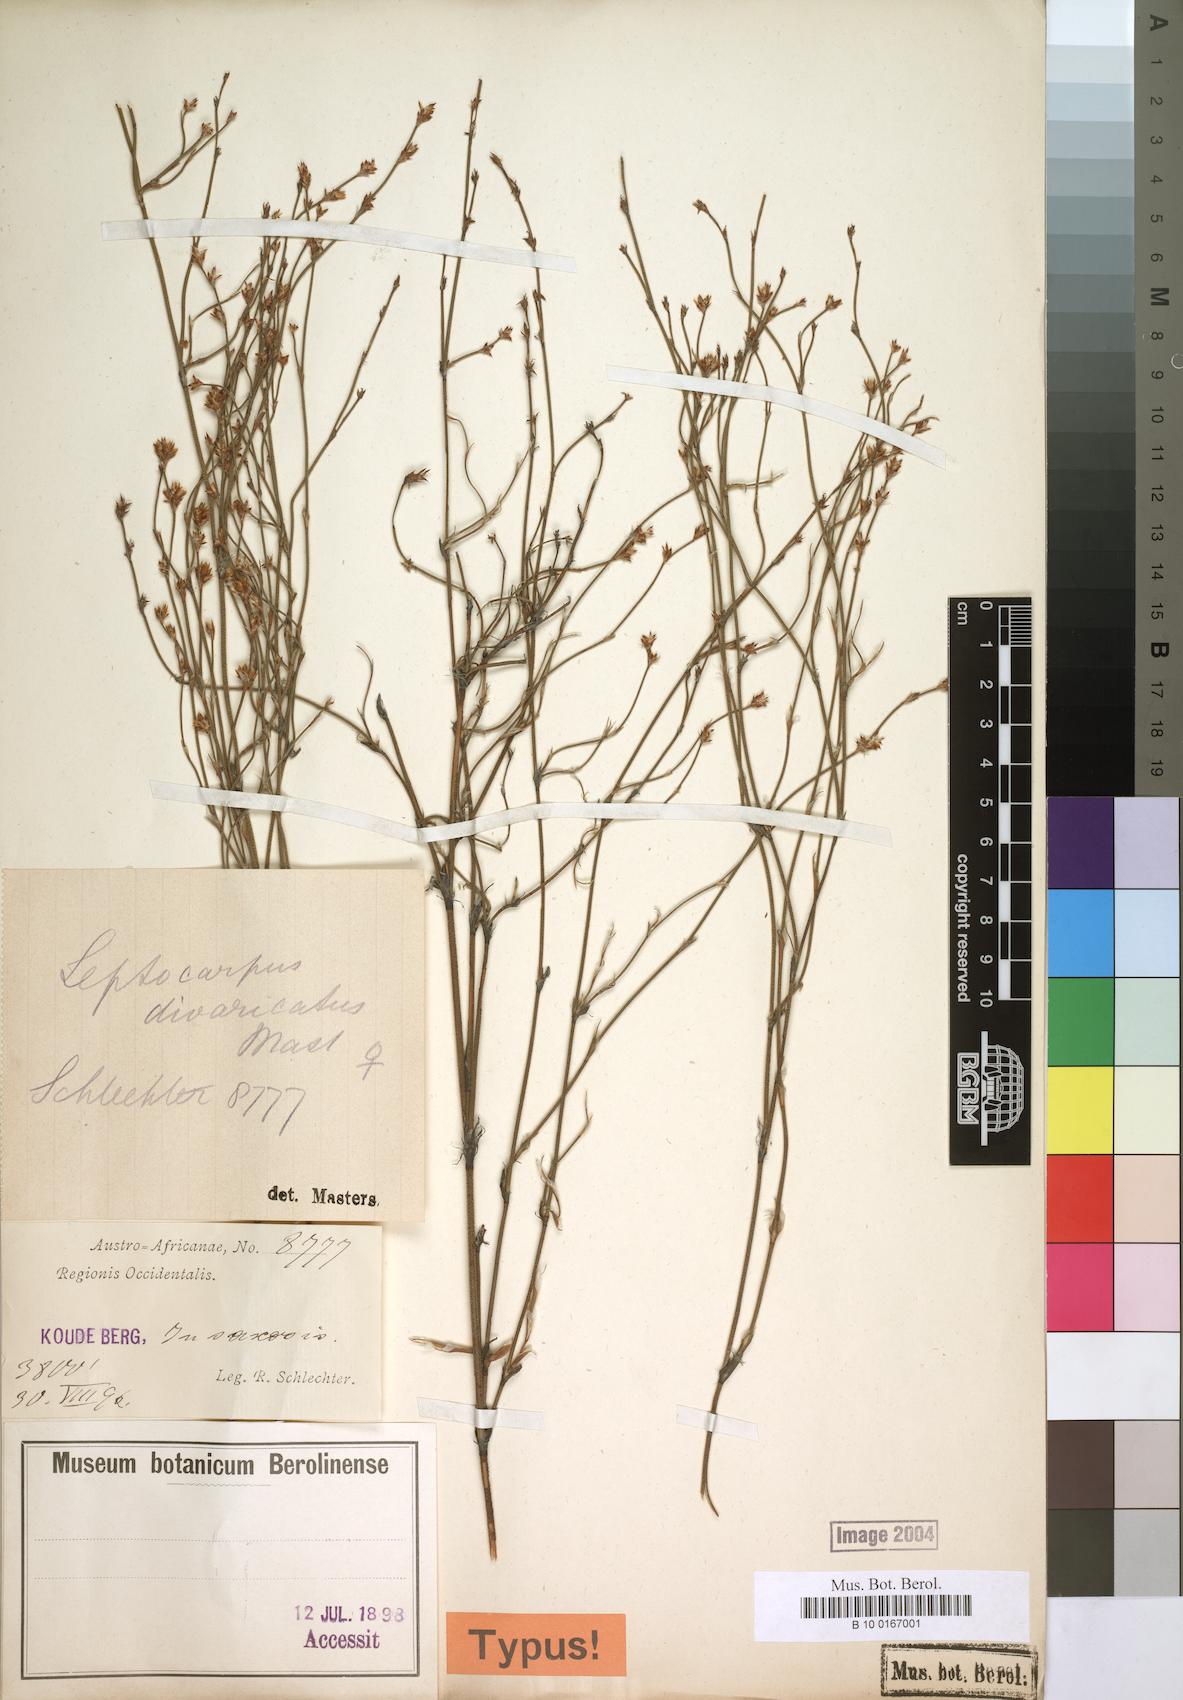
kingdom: Plantae
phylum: Tracheophyta
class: Liliopsida
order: Poales
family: Restionaceae
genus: Restio
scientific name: Restio tuberculatus
